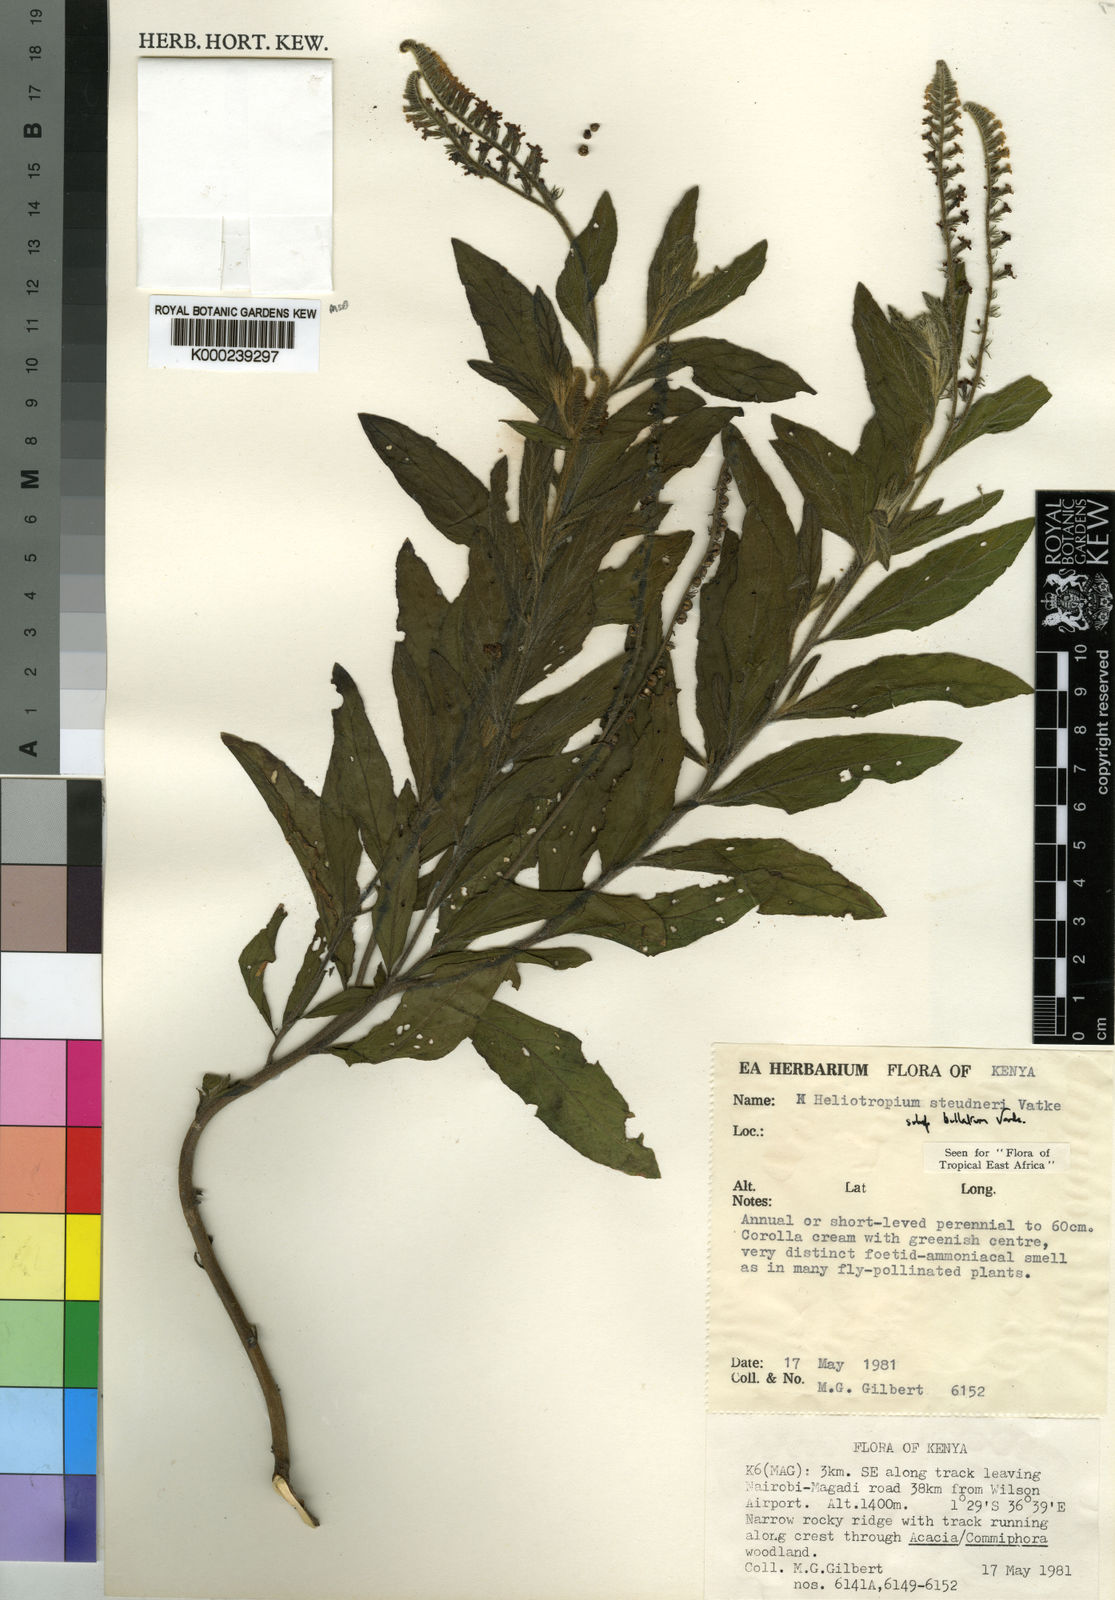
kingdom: Plantae
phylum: Tracheophyta
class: Magnoliopsida
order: Boraginales
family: Heliotropiaceae
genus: Heliotropium
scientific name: Heliotropium steudneri
